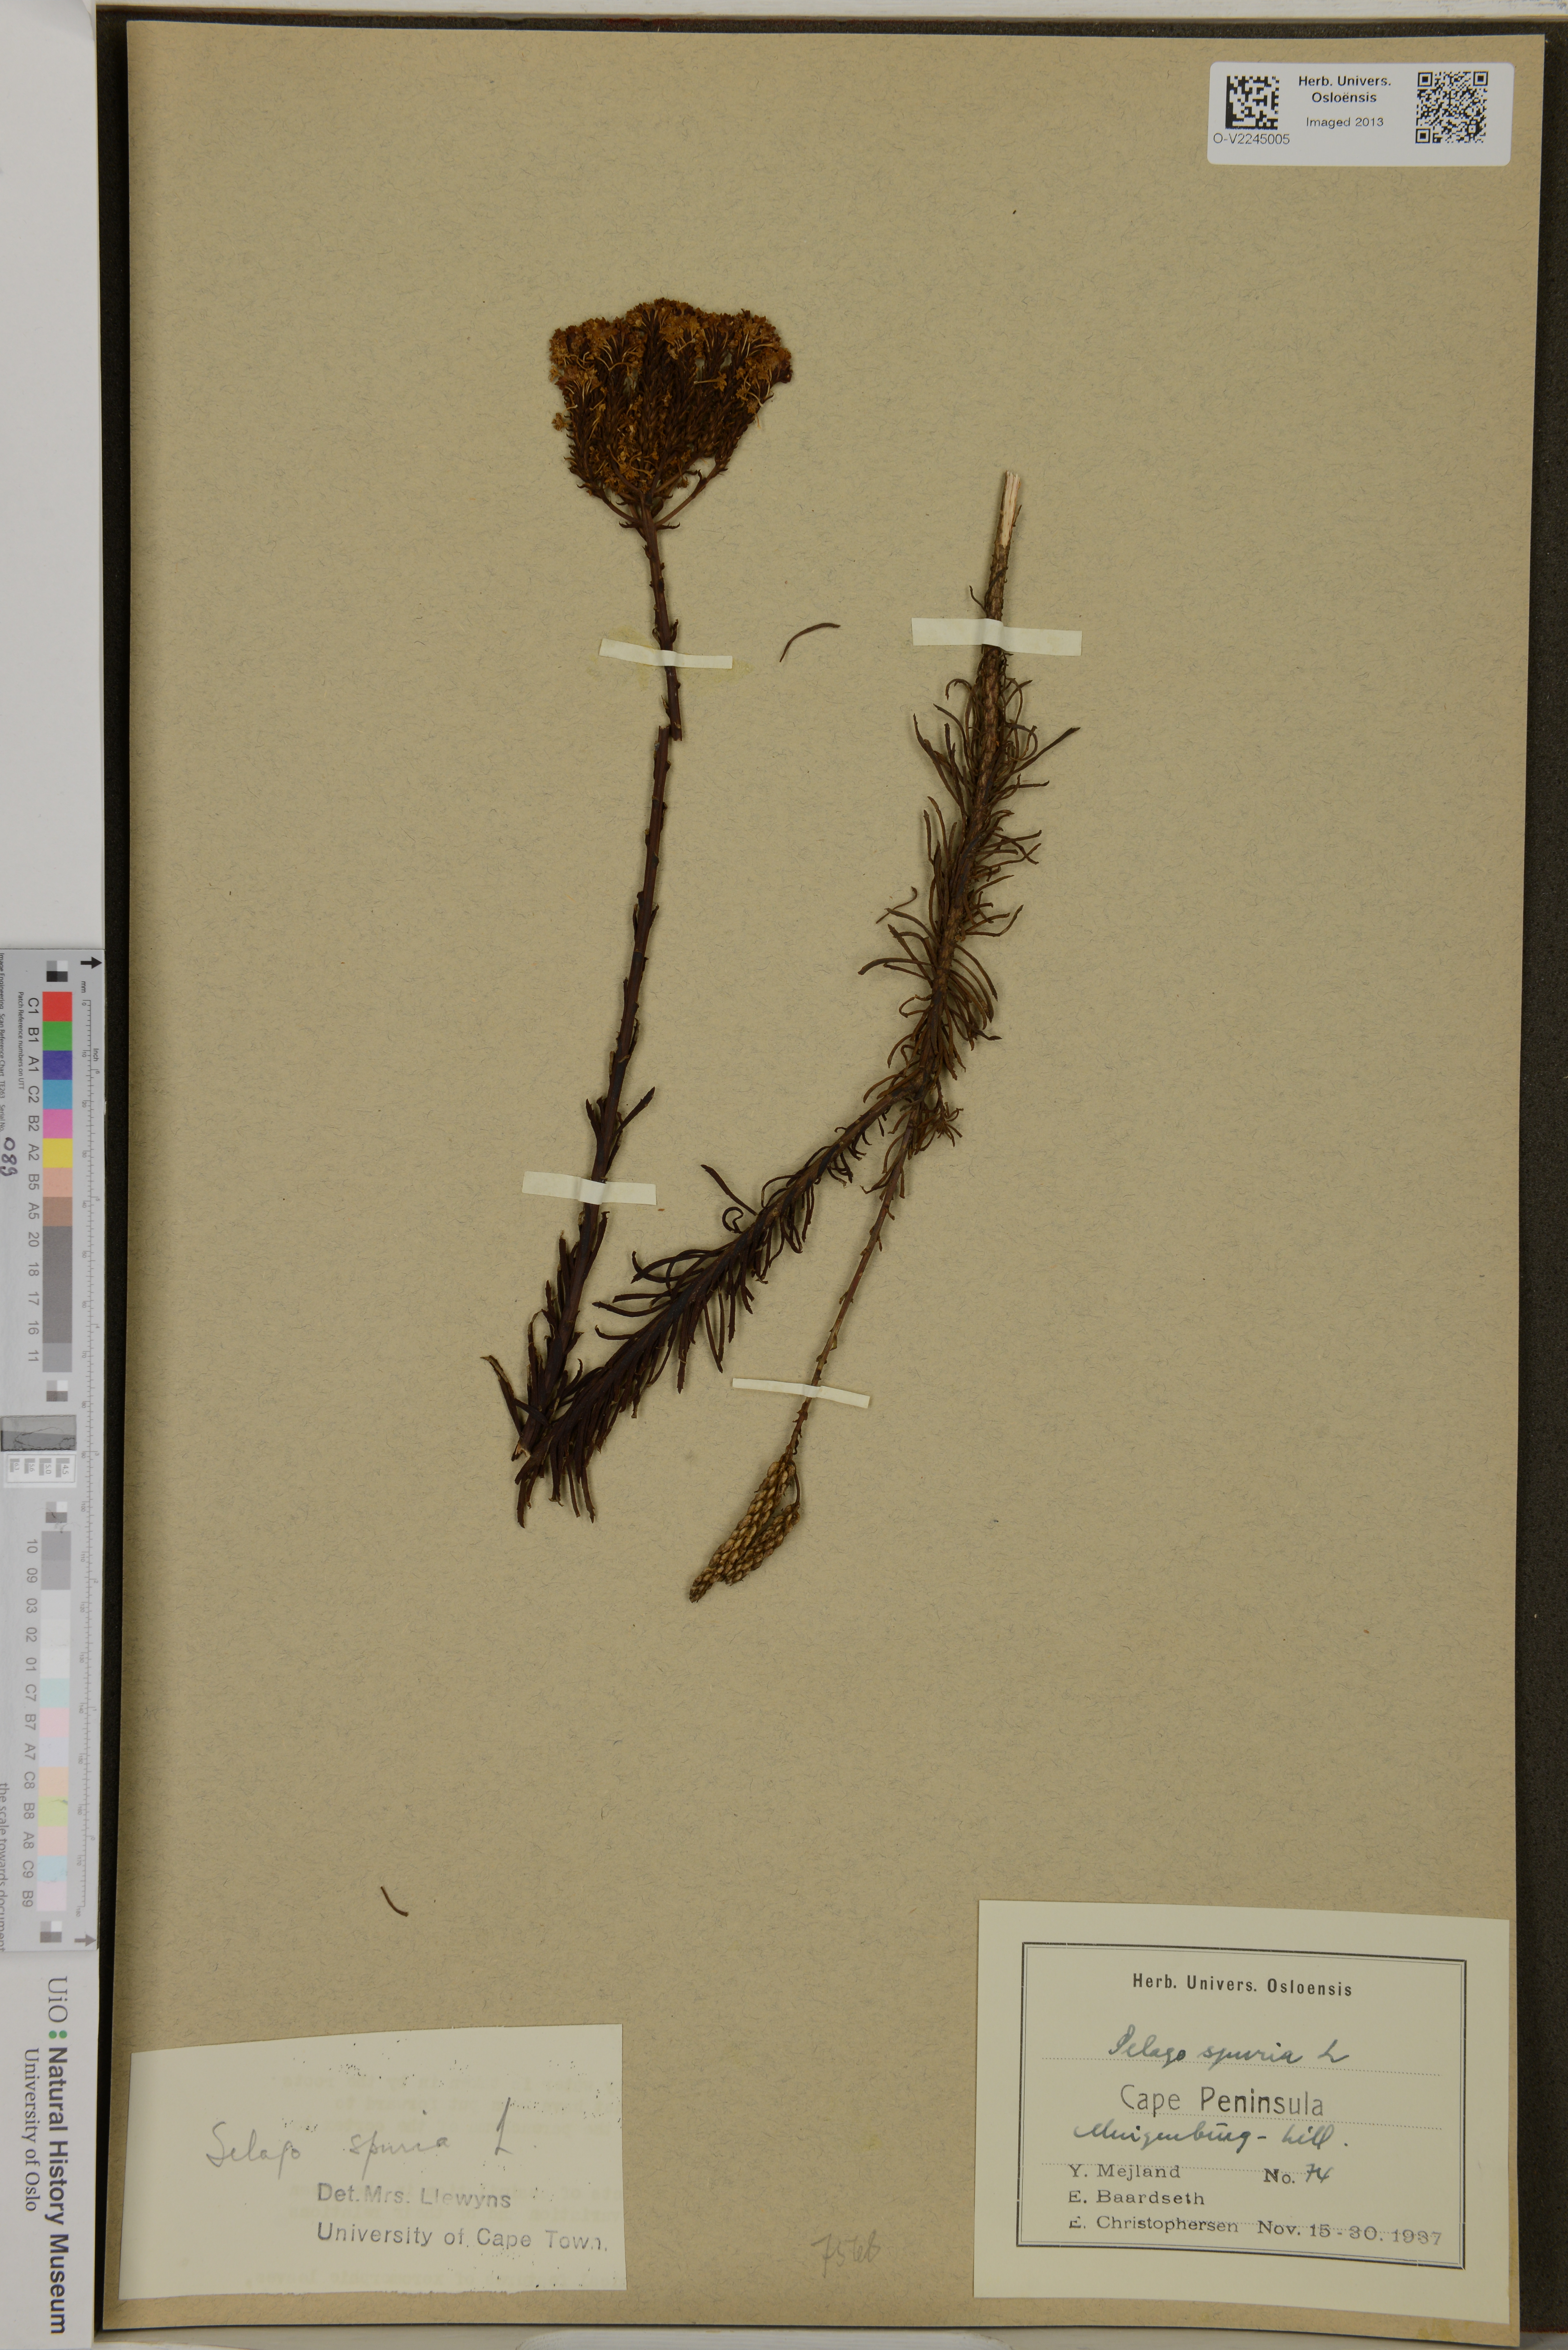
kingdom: Plantae
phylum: Tracheophyta
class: Magnoliopsida
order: Lamiales
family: Scrophulariaceae
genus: Selago
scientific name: Selago spuria
